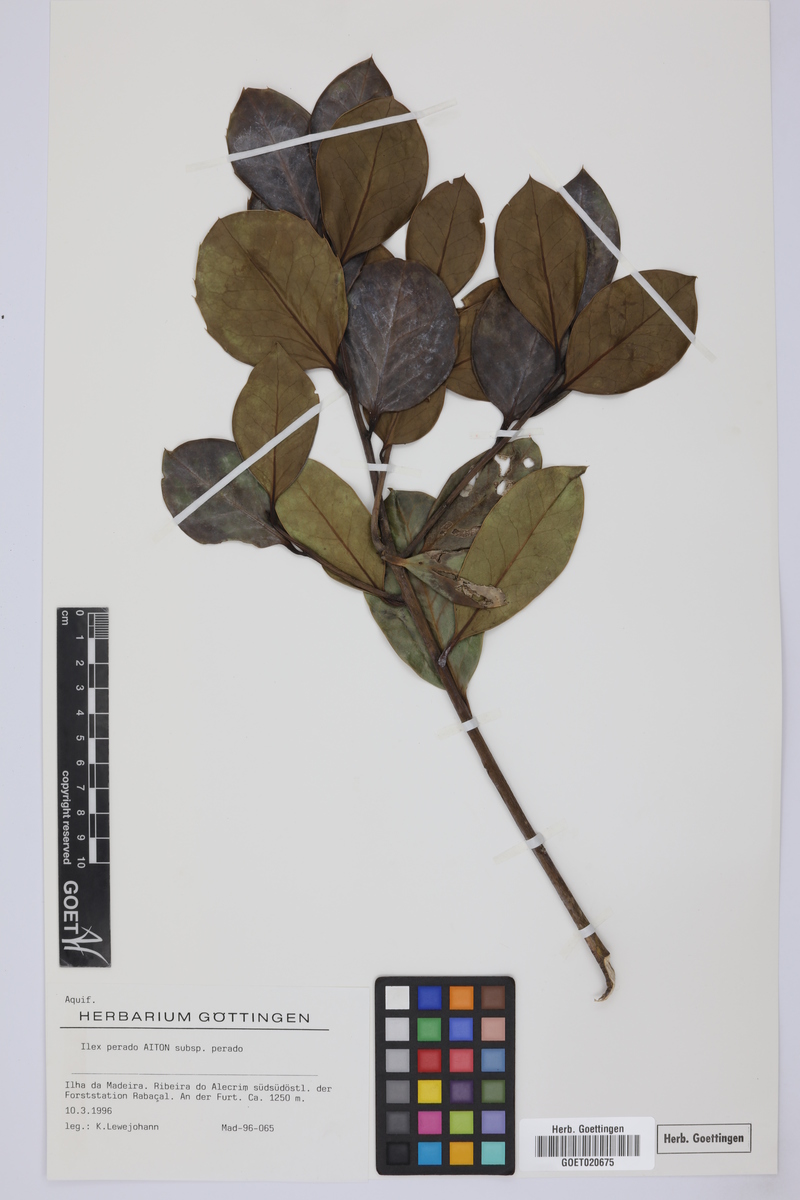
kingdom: Plantae
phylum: Tracheophyta
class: Magnoliopsida
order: Aquifoliales
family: Aquifoliaceae
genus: Ilex
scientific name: Ilex perado
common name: Madeira holly
